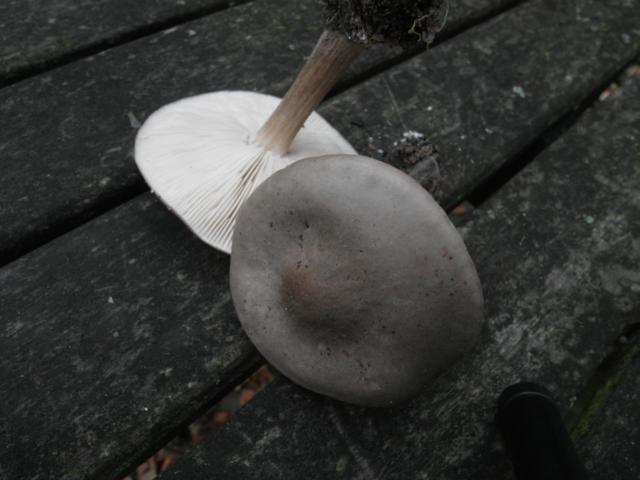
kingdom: Fungi
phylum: Basidiomycota
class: Agaricomycetes
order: Agaricales
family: Tricholomataceae
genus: Melanoleuca
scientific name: Melanoleuca polioleuca
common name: almindelig munkehat
